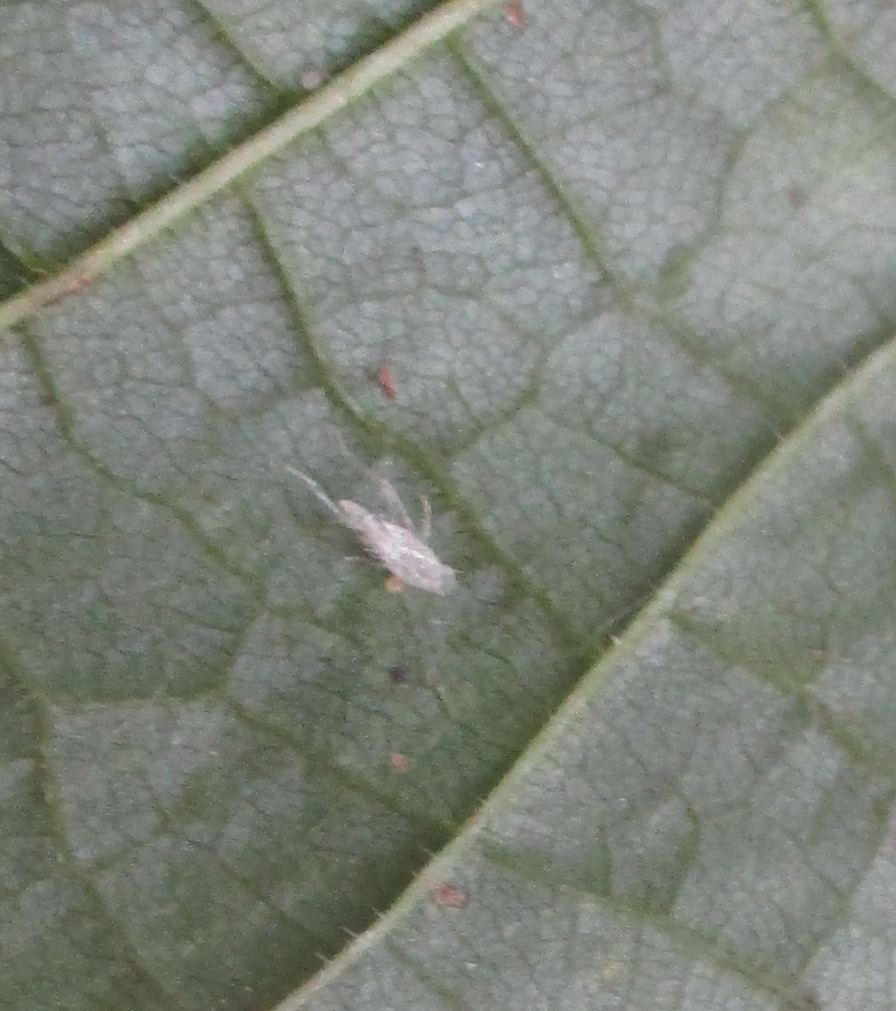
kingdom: Animalia
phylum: Arthropoda
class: Insecta
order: Hemiptera
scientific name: Hemiptera
